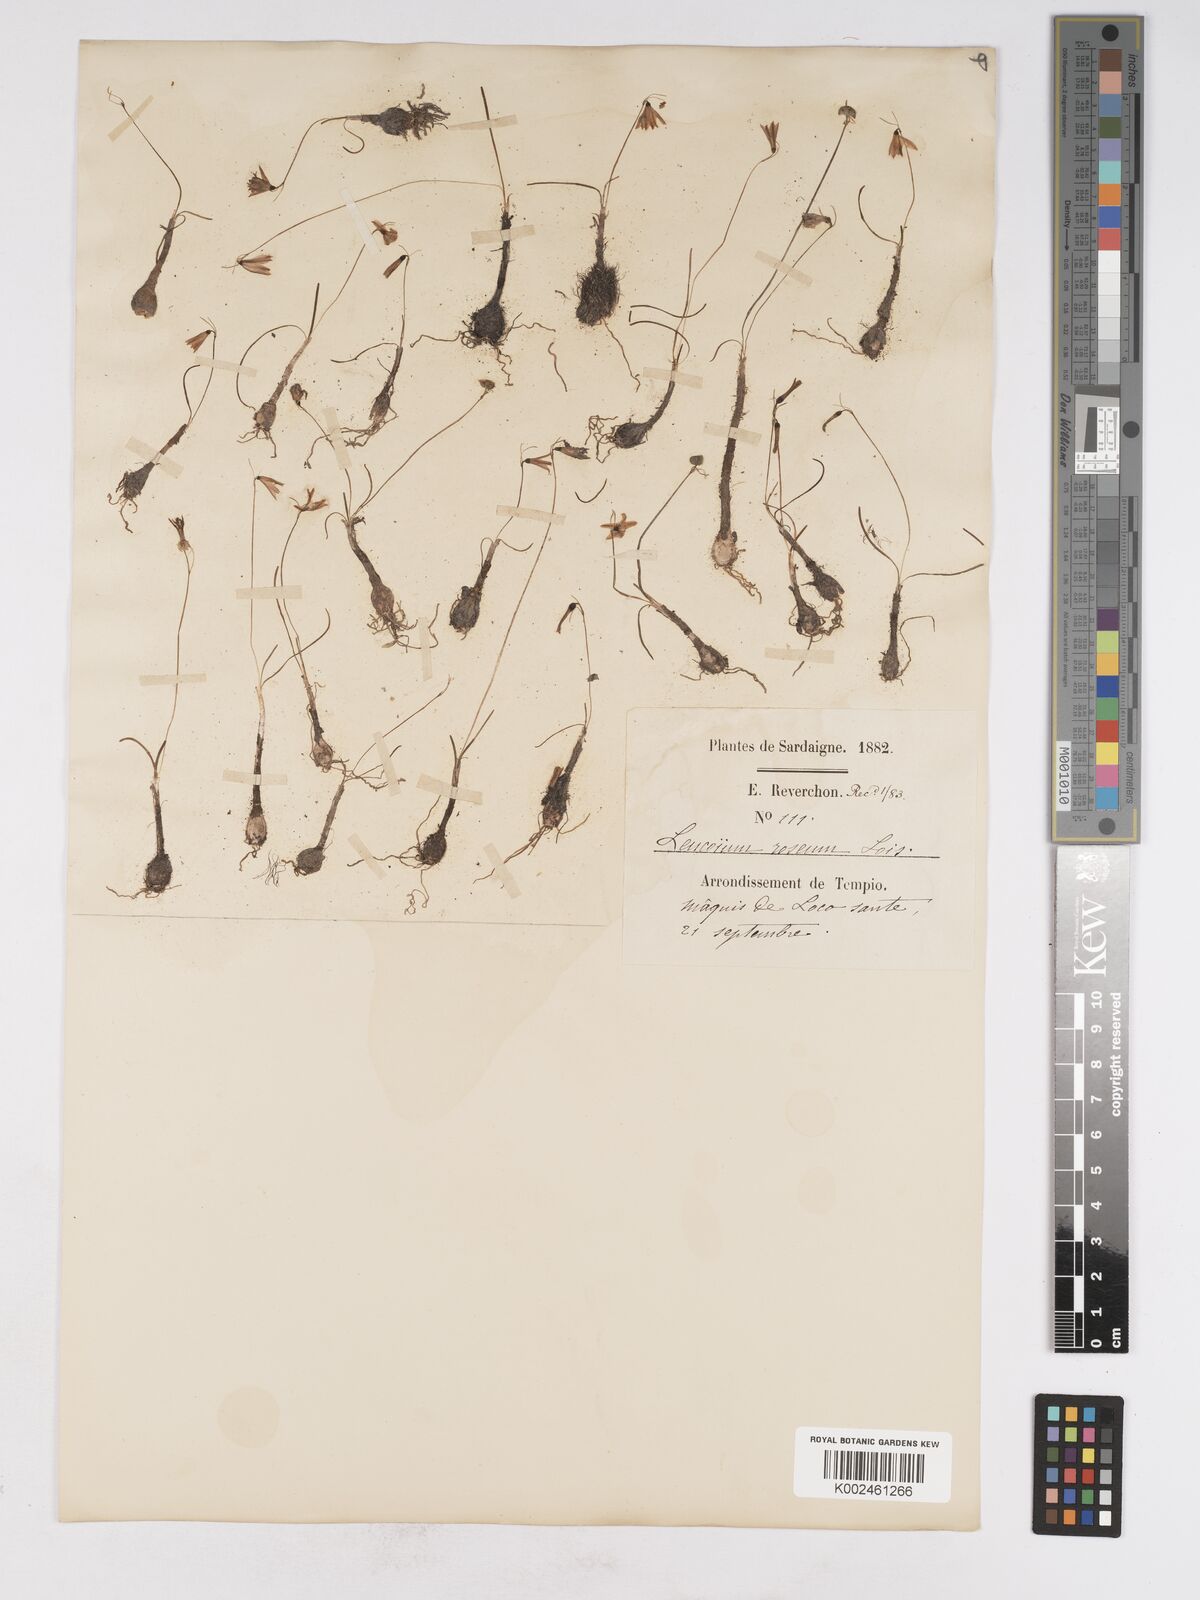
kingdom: Plantae
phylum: Tracheophyta
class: Liliopsida
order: Asparagales
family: Amaryllidaceae
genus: Acis
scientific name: Acis rosea
